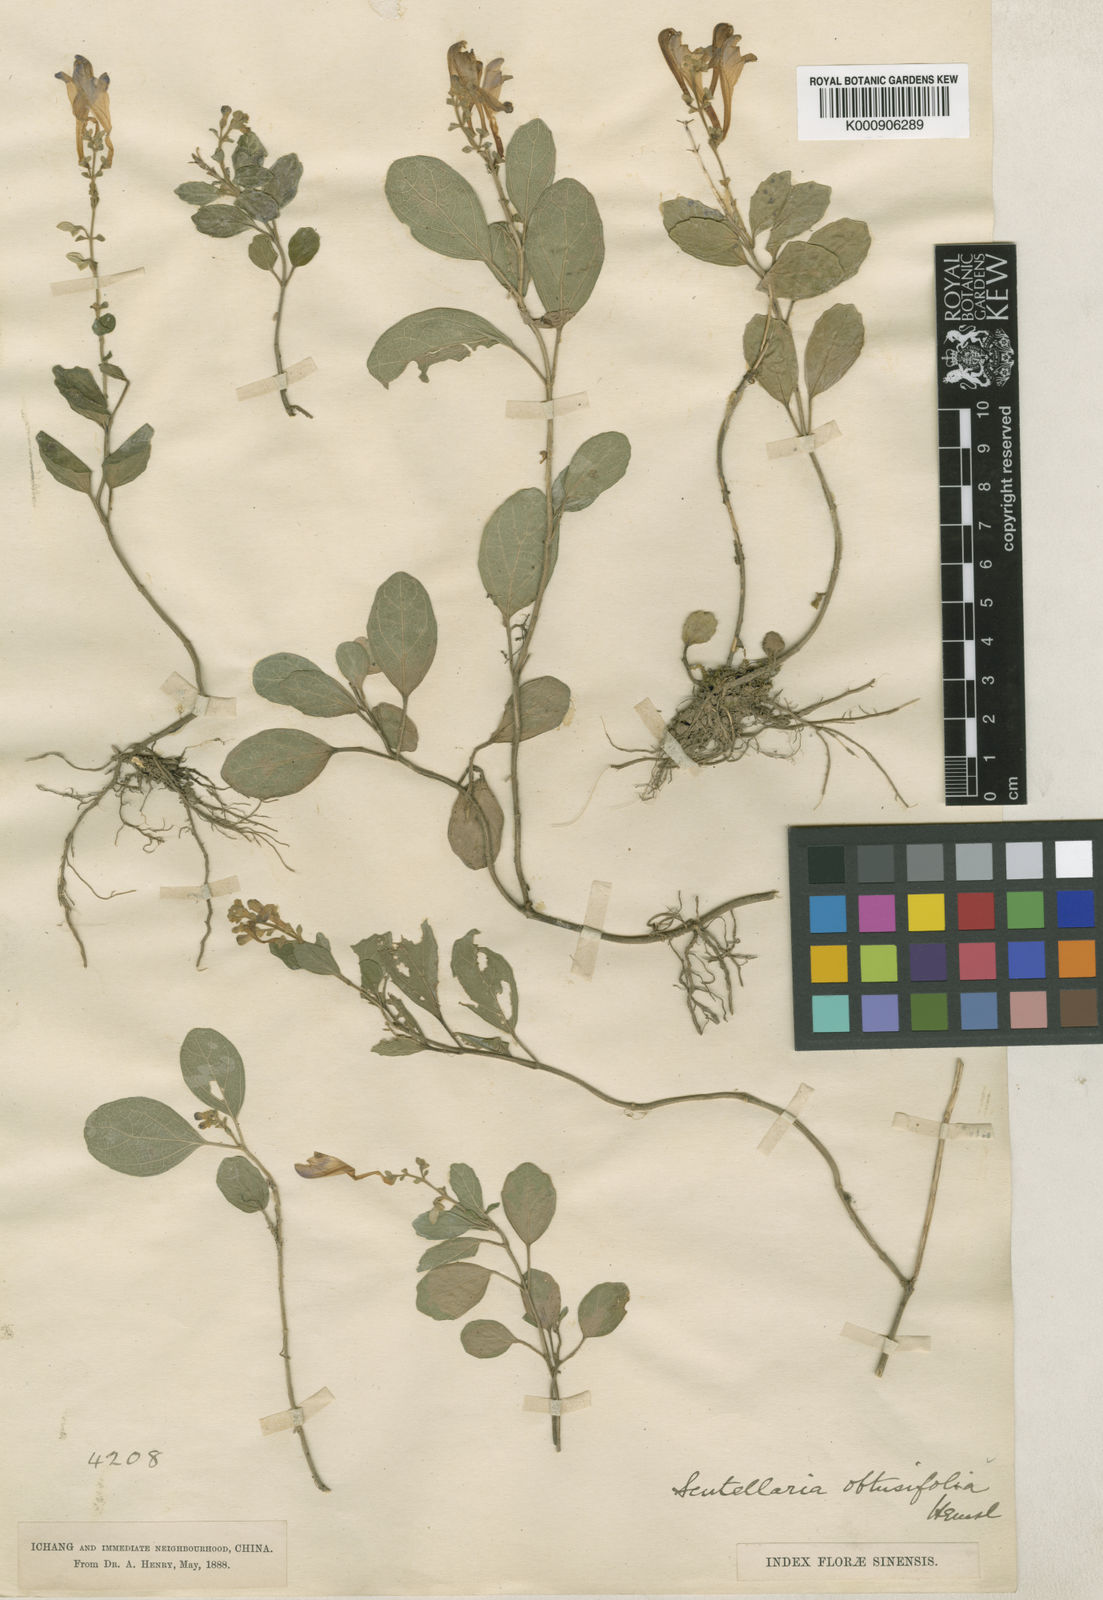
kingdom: Plantae
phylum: Tracheophyta
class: Magnoliopsida
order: Lamiales
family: Lamiaceae
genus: Scutellaria
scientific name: Scutellaria obtusifolia
